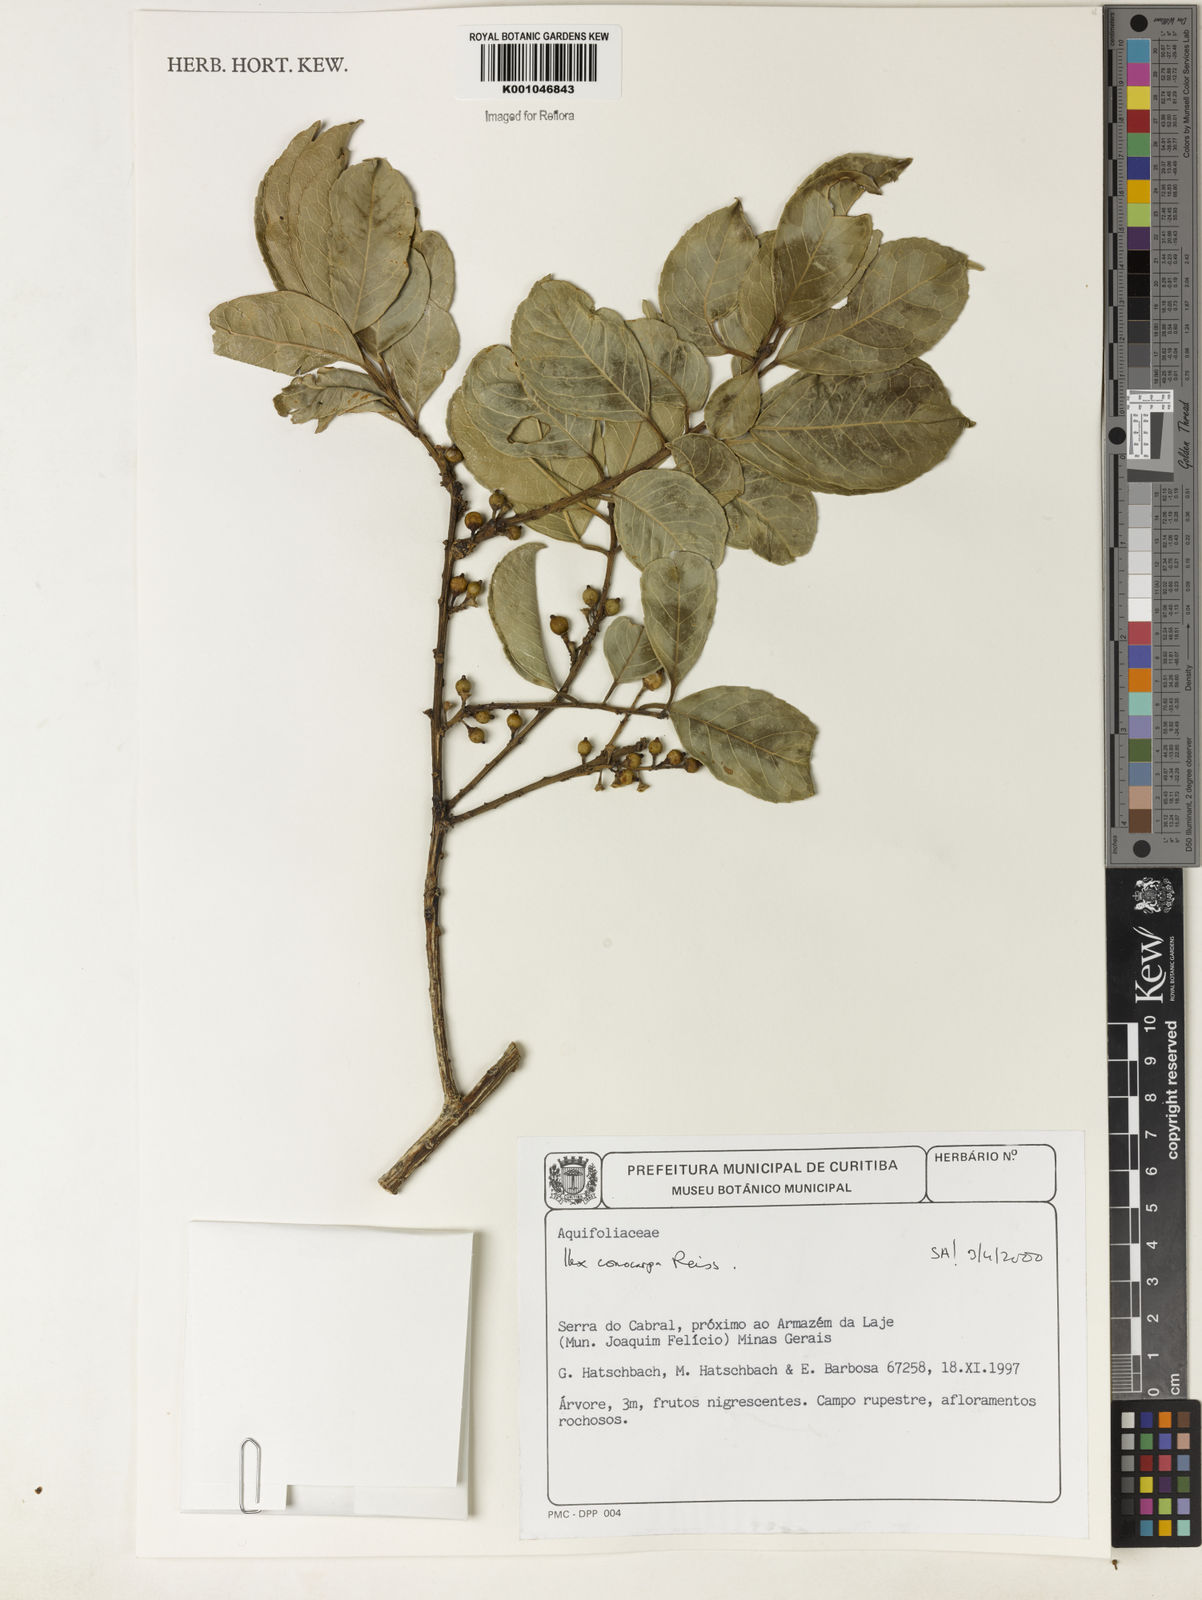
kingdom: Plantae
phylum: Tracheophyta
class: Magnoliopsida
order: Aquifoliales
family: Aquifoliaceae
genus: Ilex
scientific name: Ilex conocarpa
